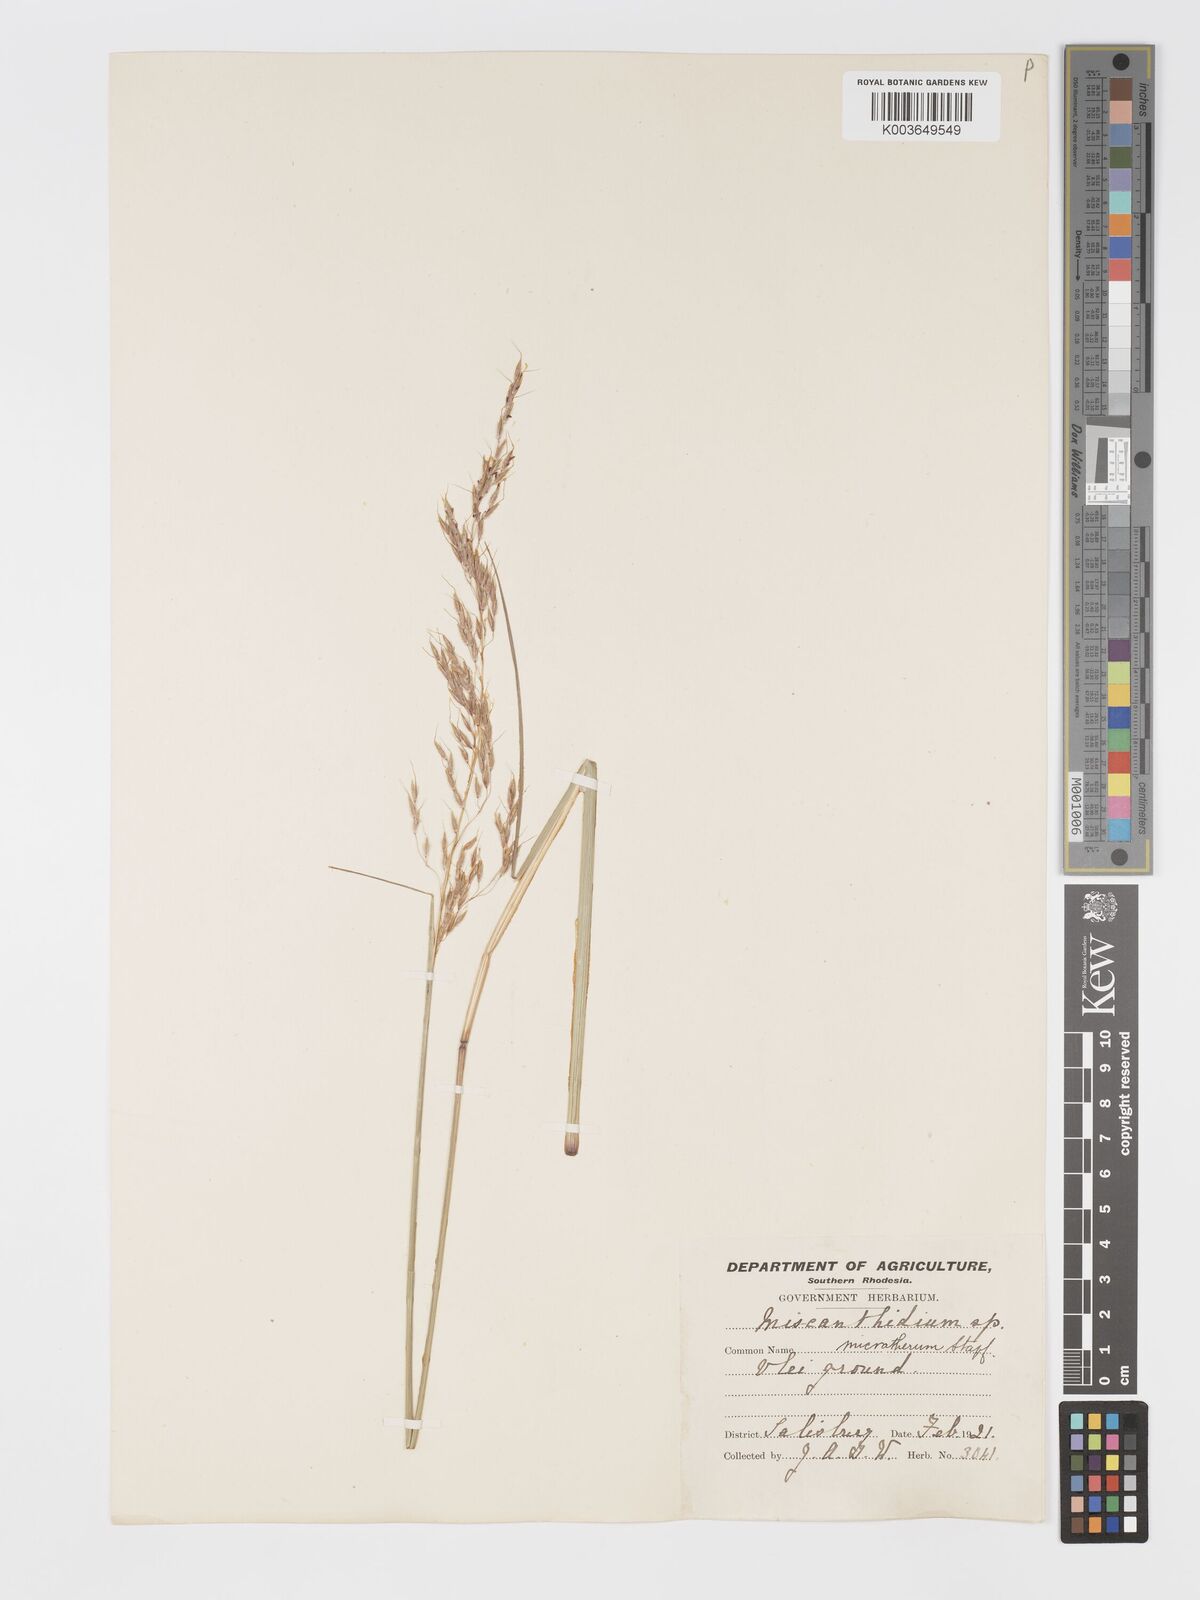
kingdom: Plantae
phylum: Tracheophyta
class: Liliopsida
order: Poales
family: Poaceae
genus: Sorghastrum
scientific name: Sorghastrum nudipes
